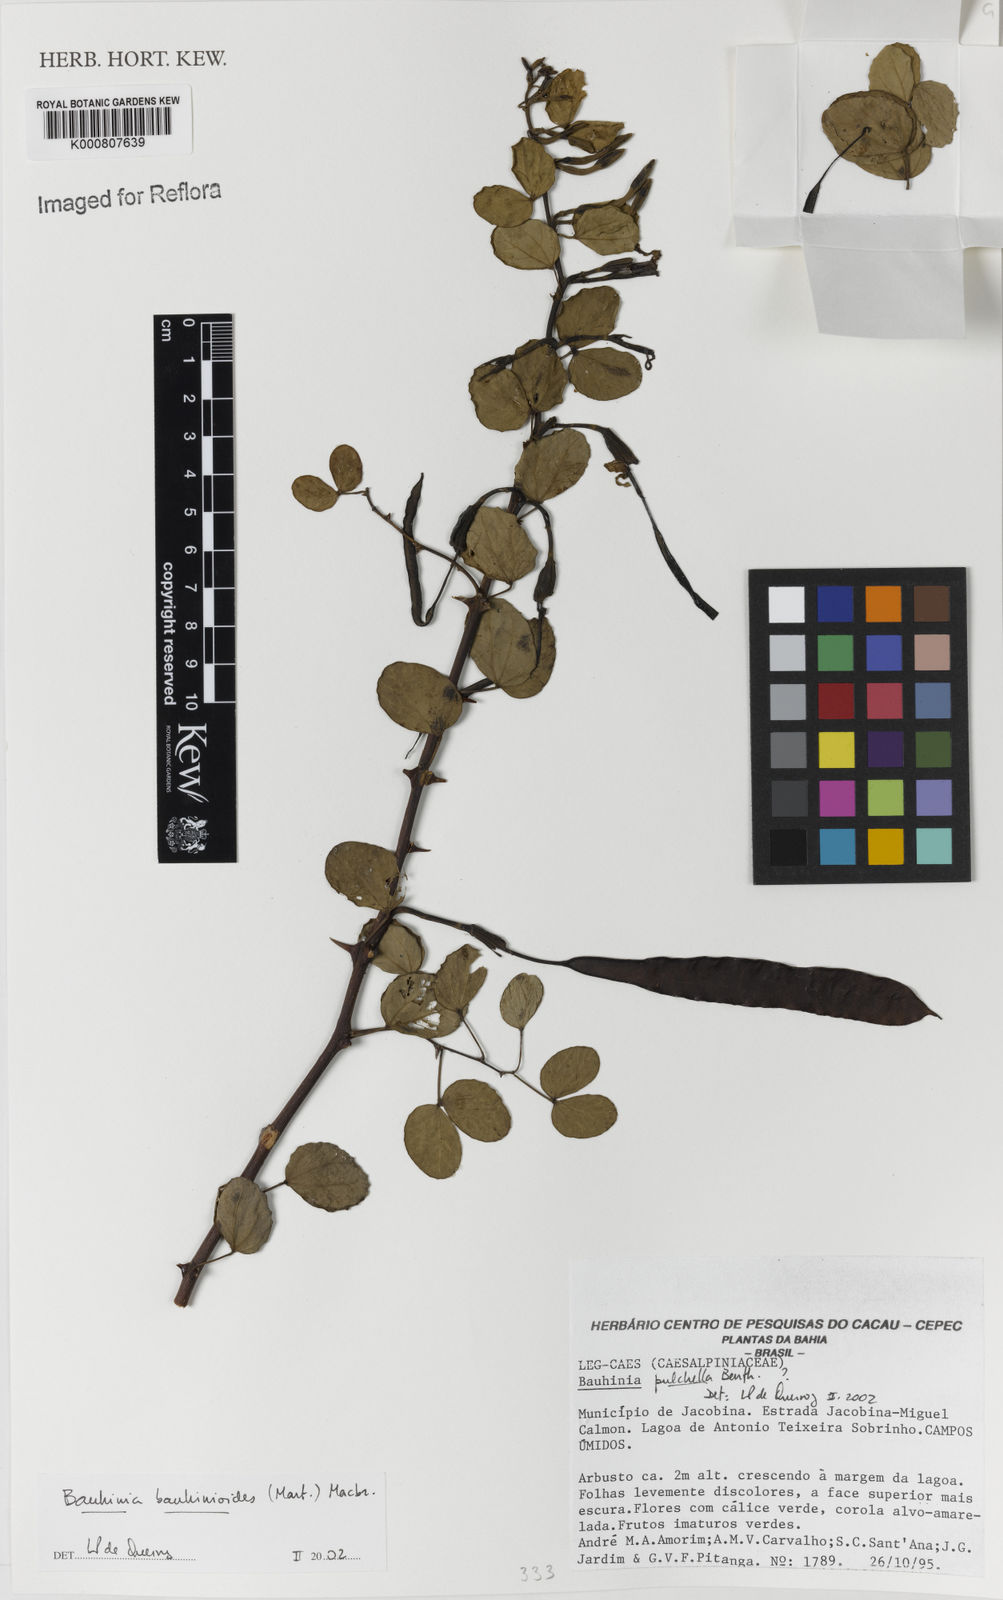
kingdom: Plantae
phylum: Tracheophyta
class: Magnoliopsida
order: Fabales
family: Fabaceae
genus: Bauhinia
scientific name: Bauhinia bauhinioides
